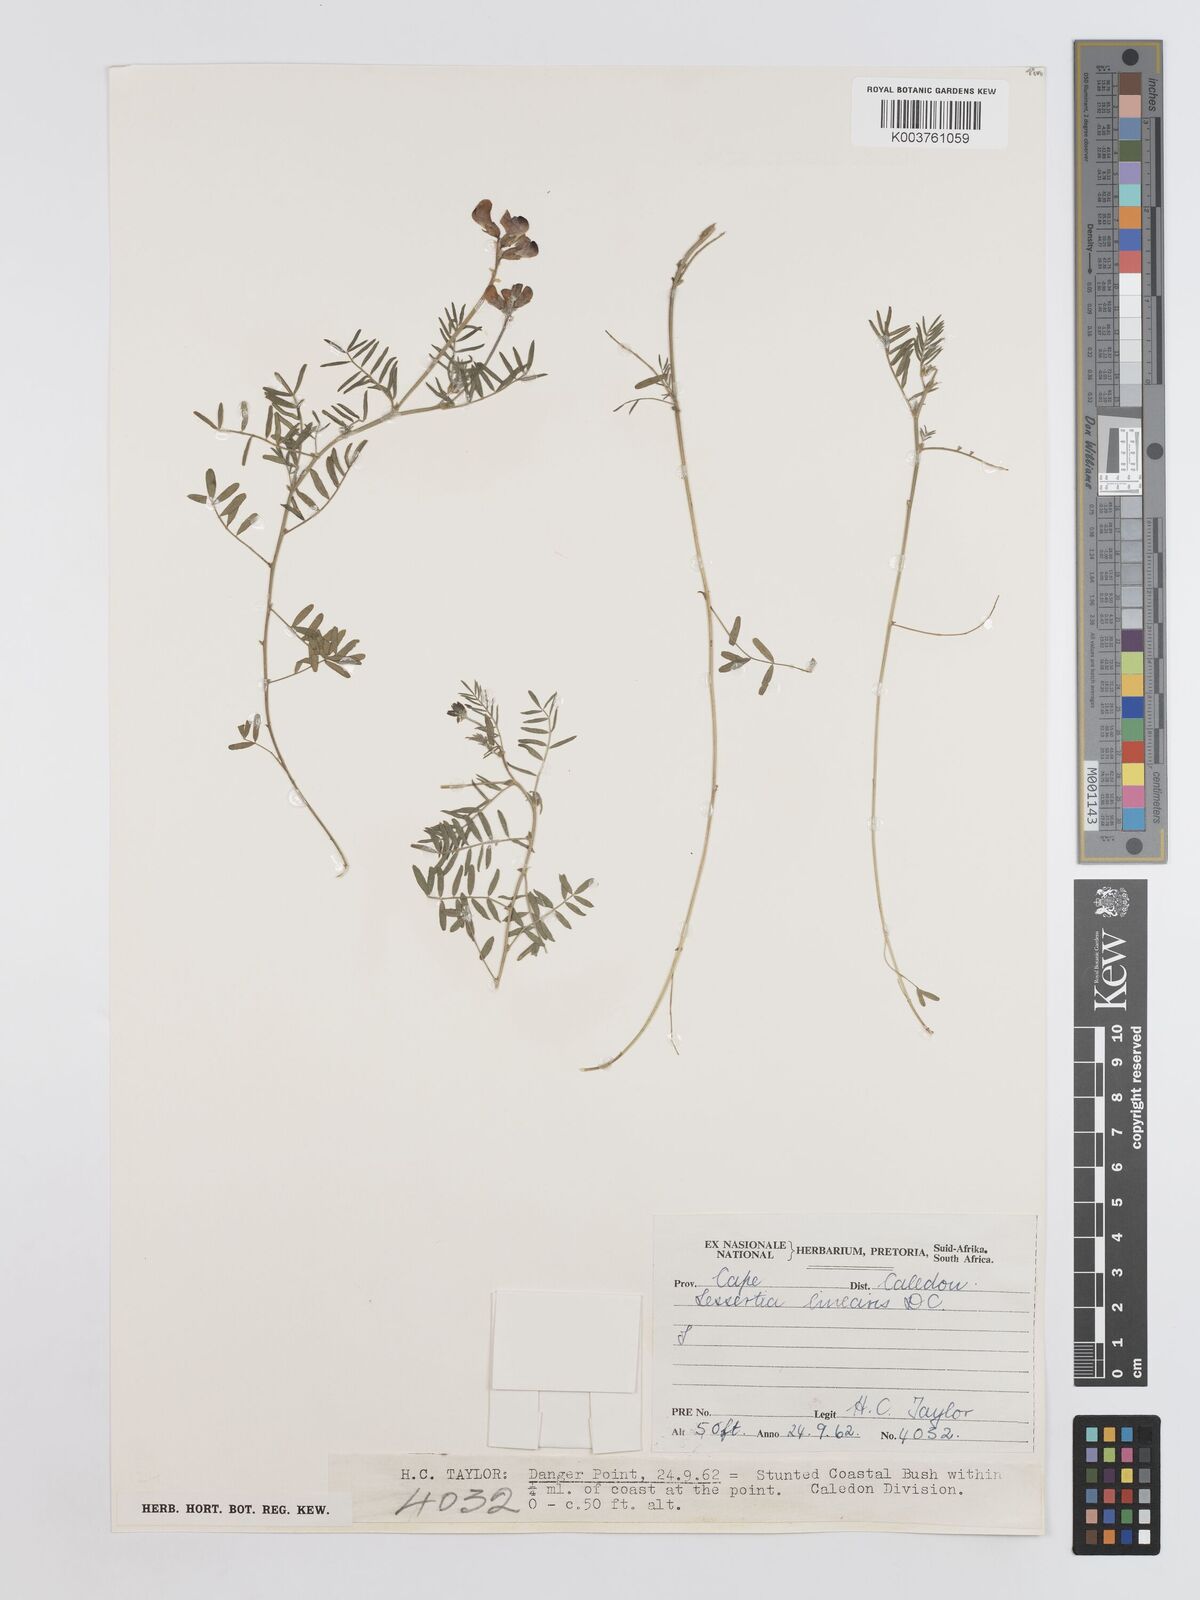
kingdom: Plantae
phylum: Tracheophyta
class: Magnoliopsida
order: Fabales
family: Fabaceae
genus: Lessertia
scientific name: Lessertia herbacea
